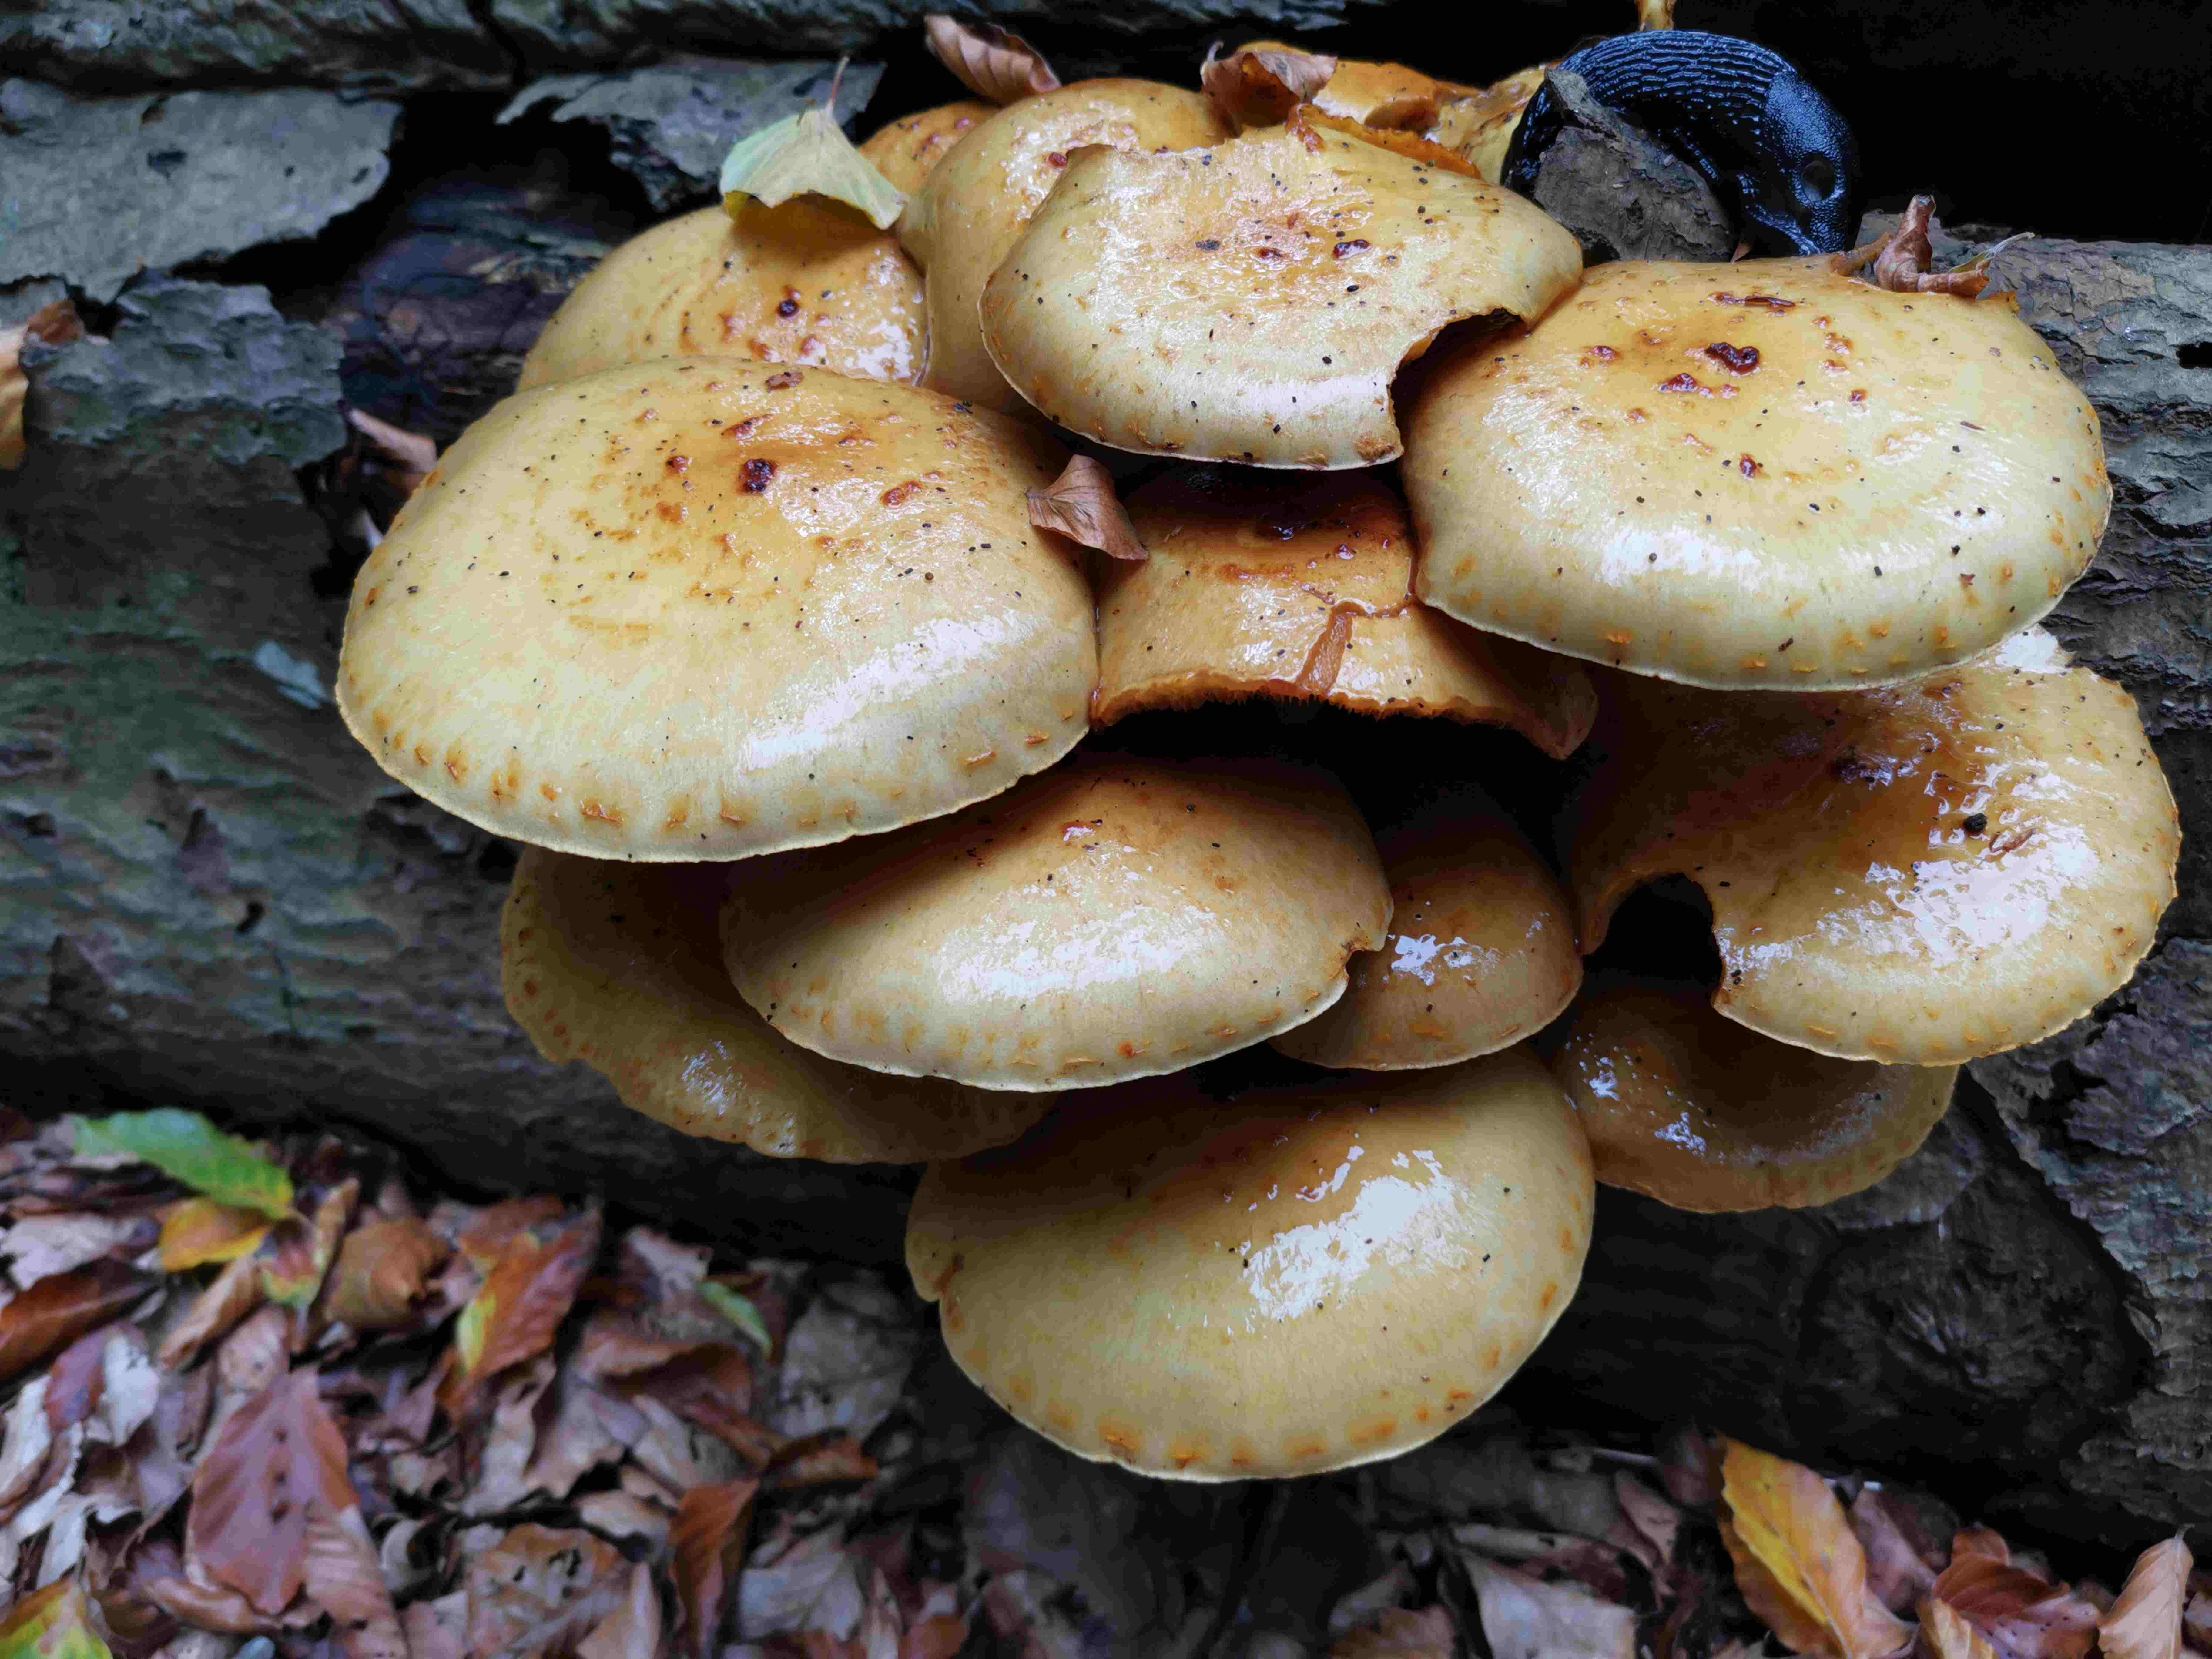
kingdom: Fungi
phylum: Basidiomycota
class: Agaricomycetes
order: Agaricales
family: Strophariaceae
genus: Pholiota
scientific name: Pholiota adiposa
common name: højtsiddende skælhat
